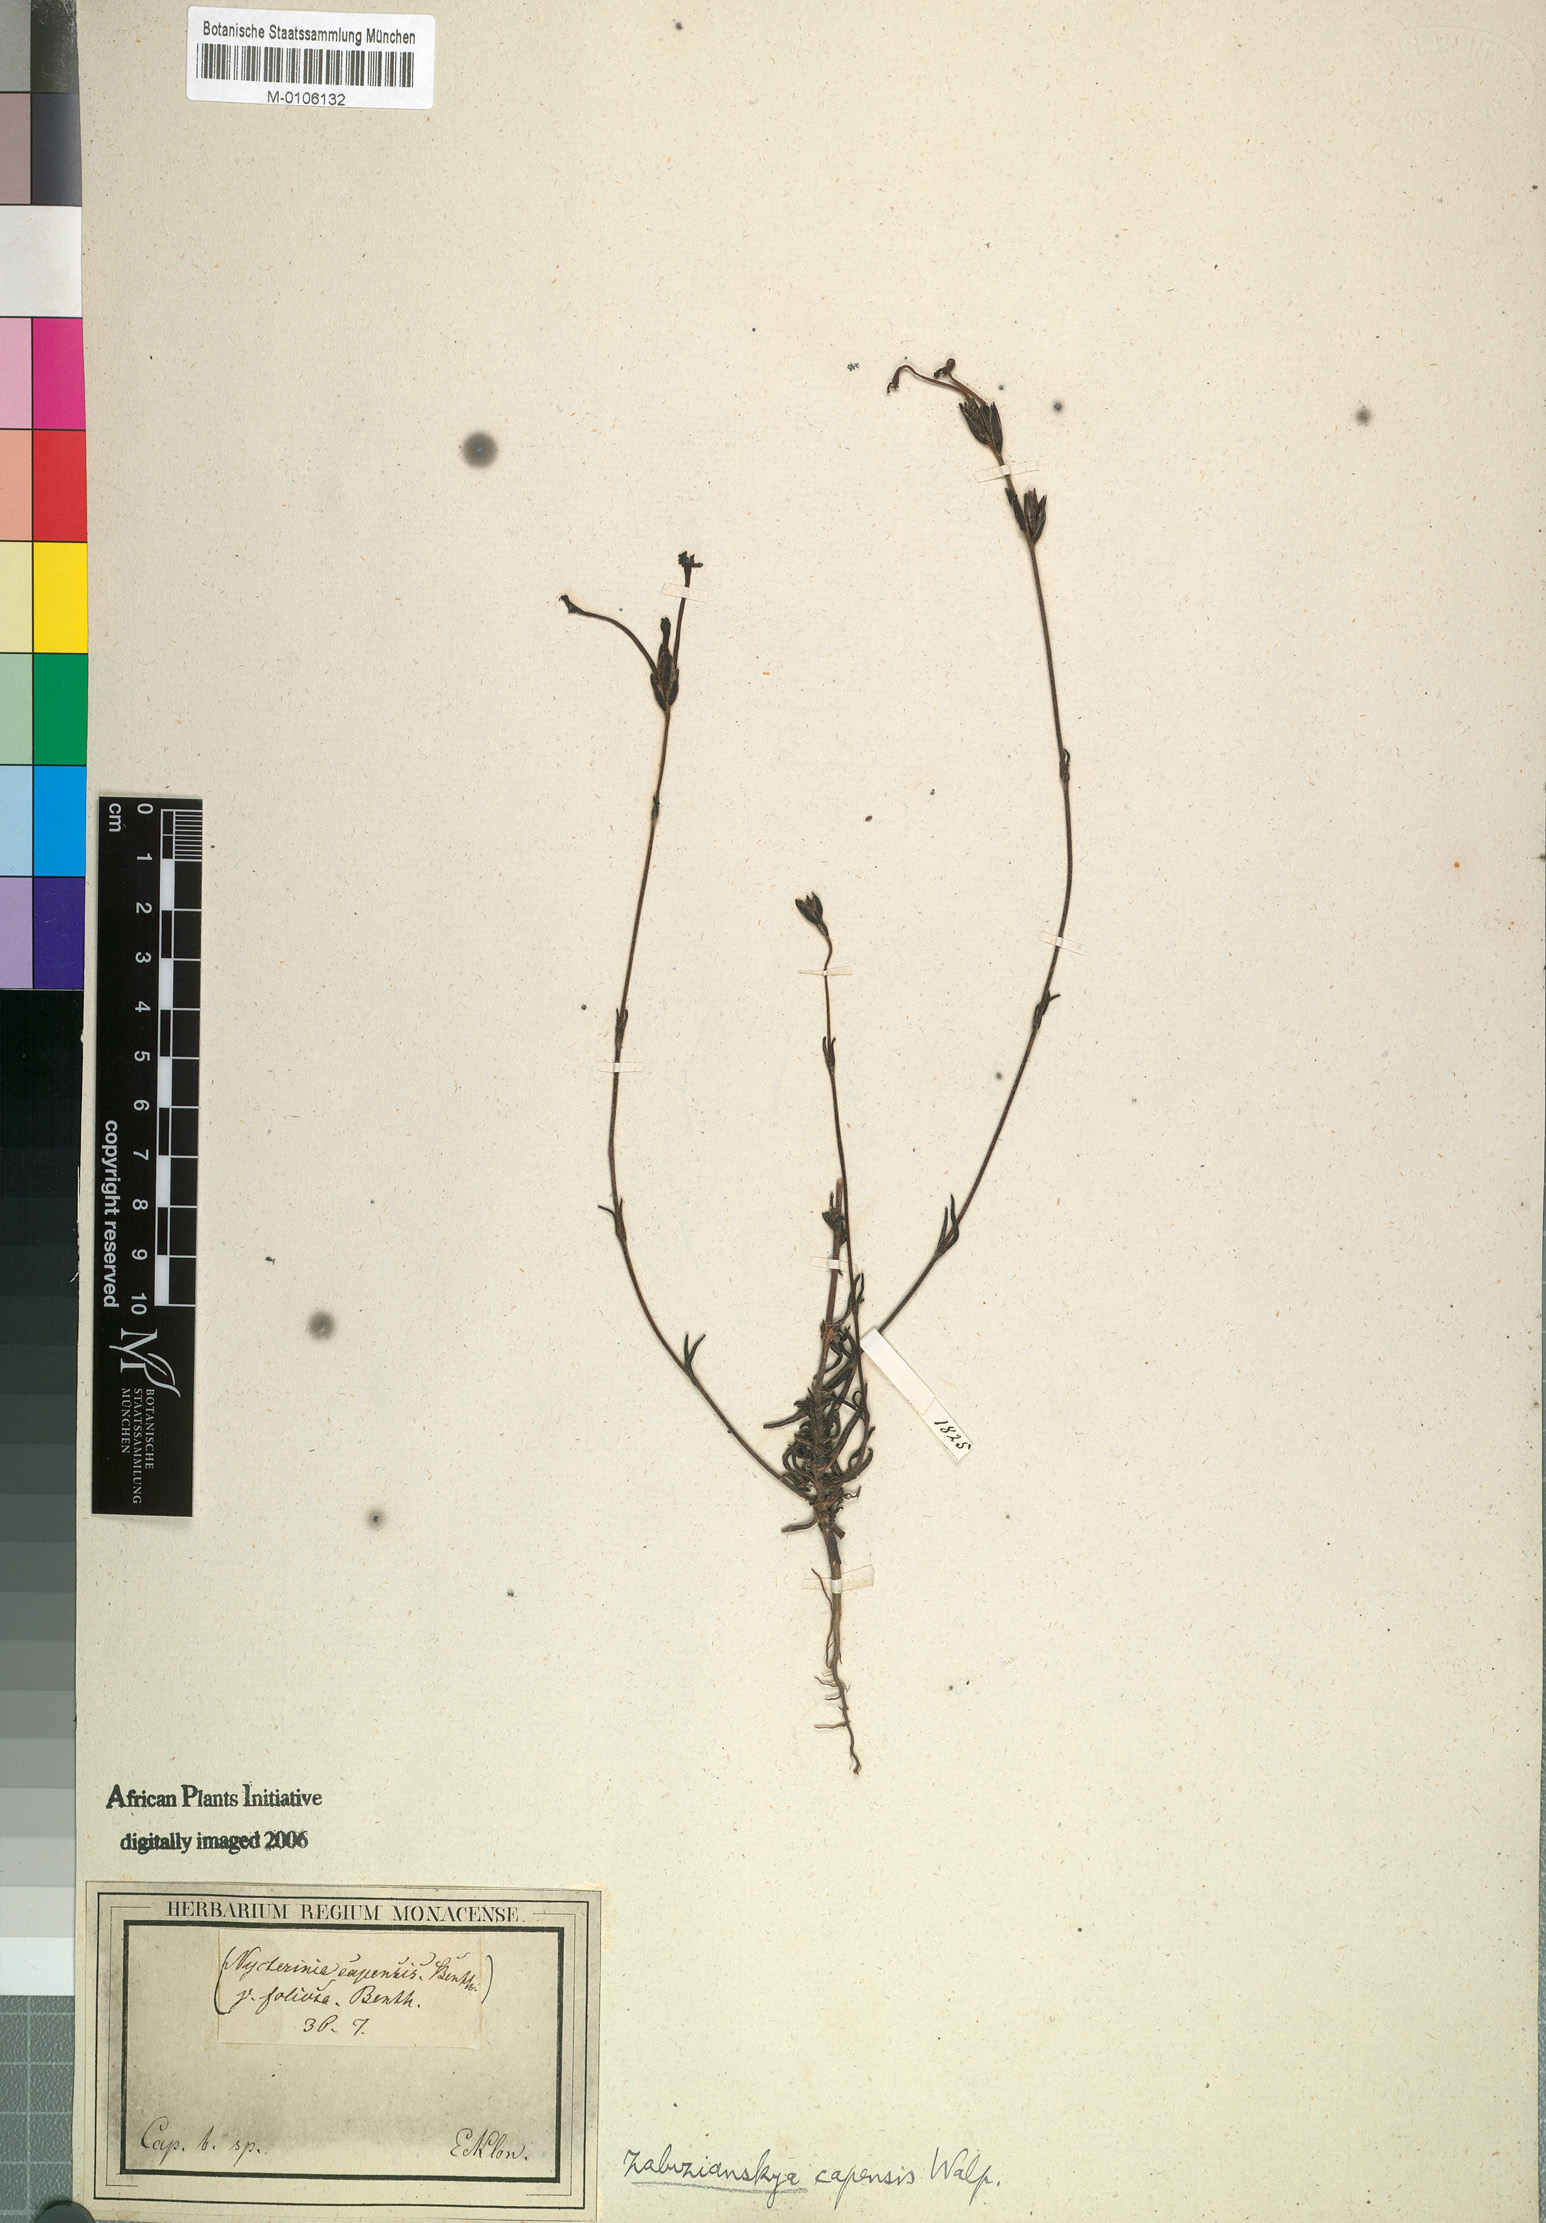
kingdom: Plantae
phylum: Tracheophyta
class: Magnoliopsida
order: Lamiales
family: Scrophulariaceae
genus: Zaluzianskya
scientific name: Zaluzianskya capensis
